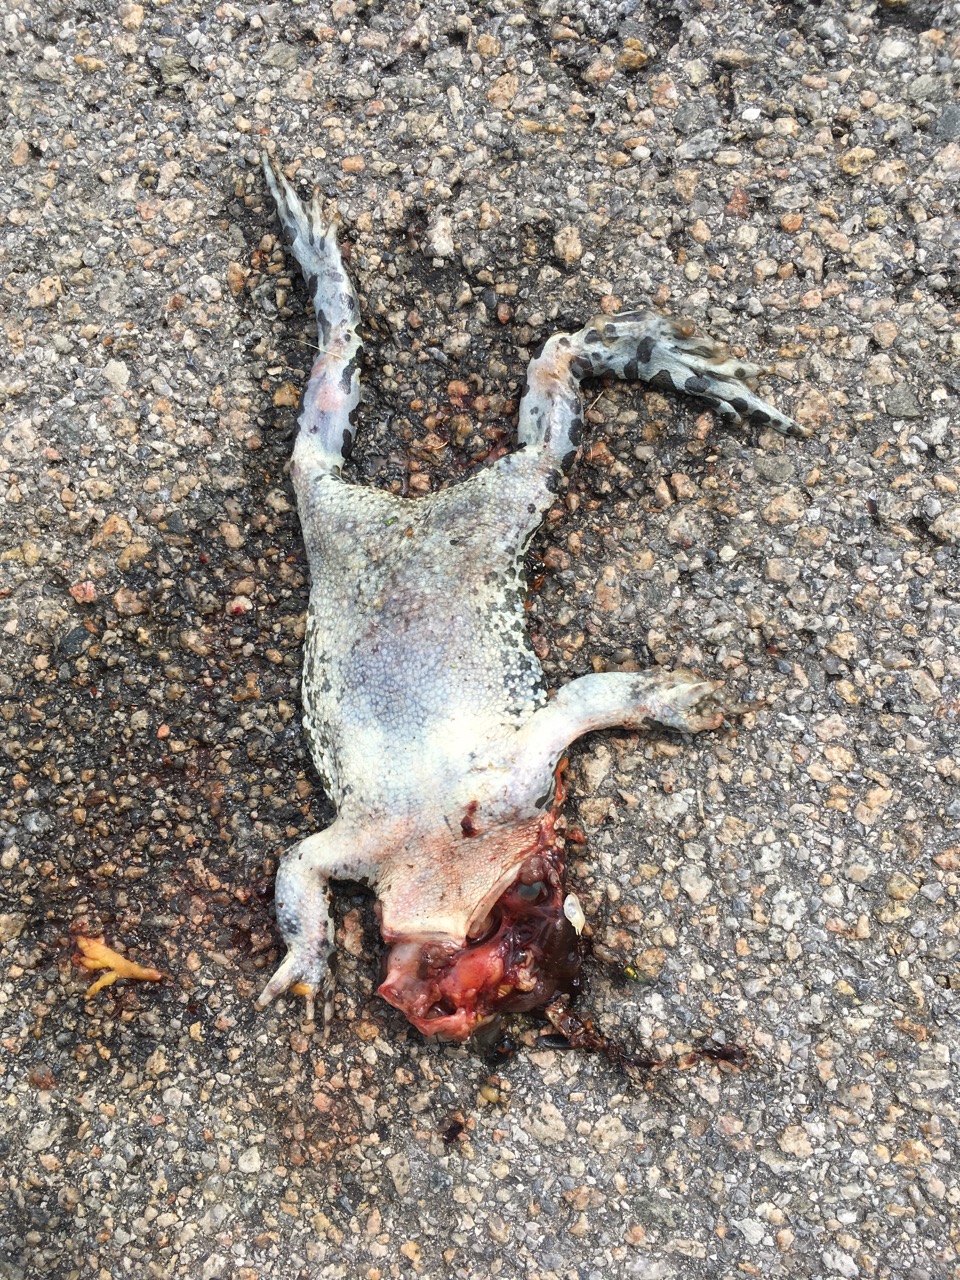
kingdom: Animalia
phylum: Chordata
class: Amphibia
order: Anura
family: Bufonidae
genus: Bufotes
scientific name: Bufotes viridis
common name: European green toad
